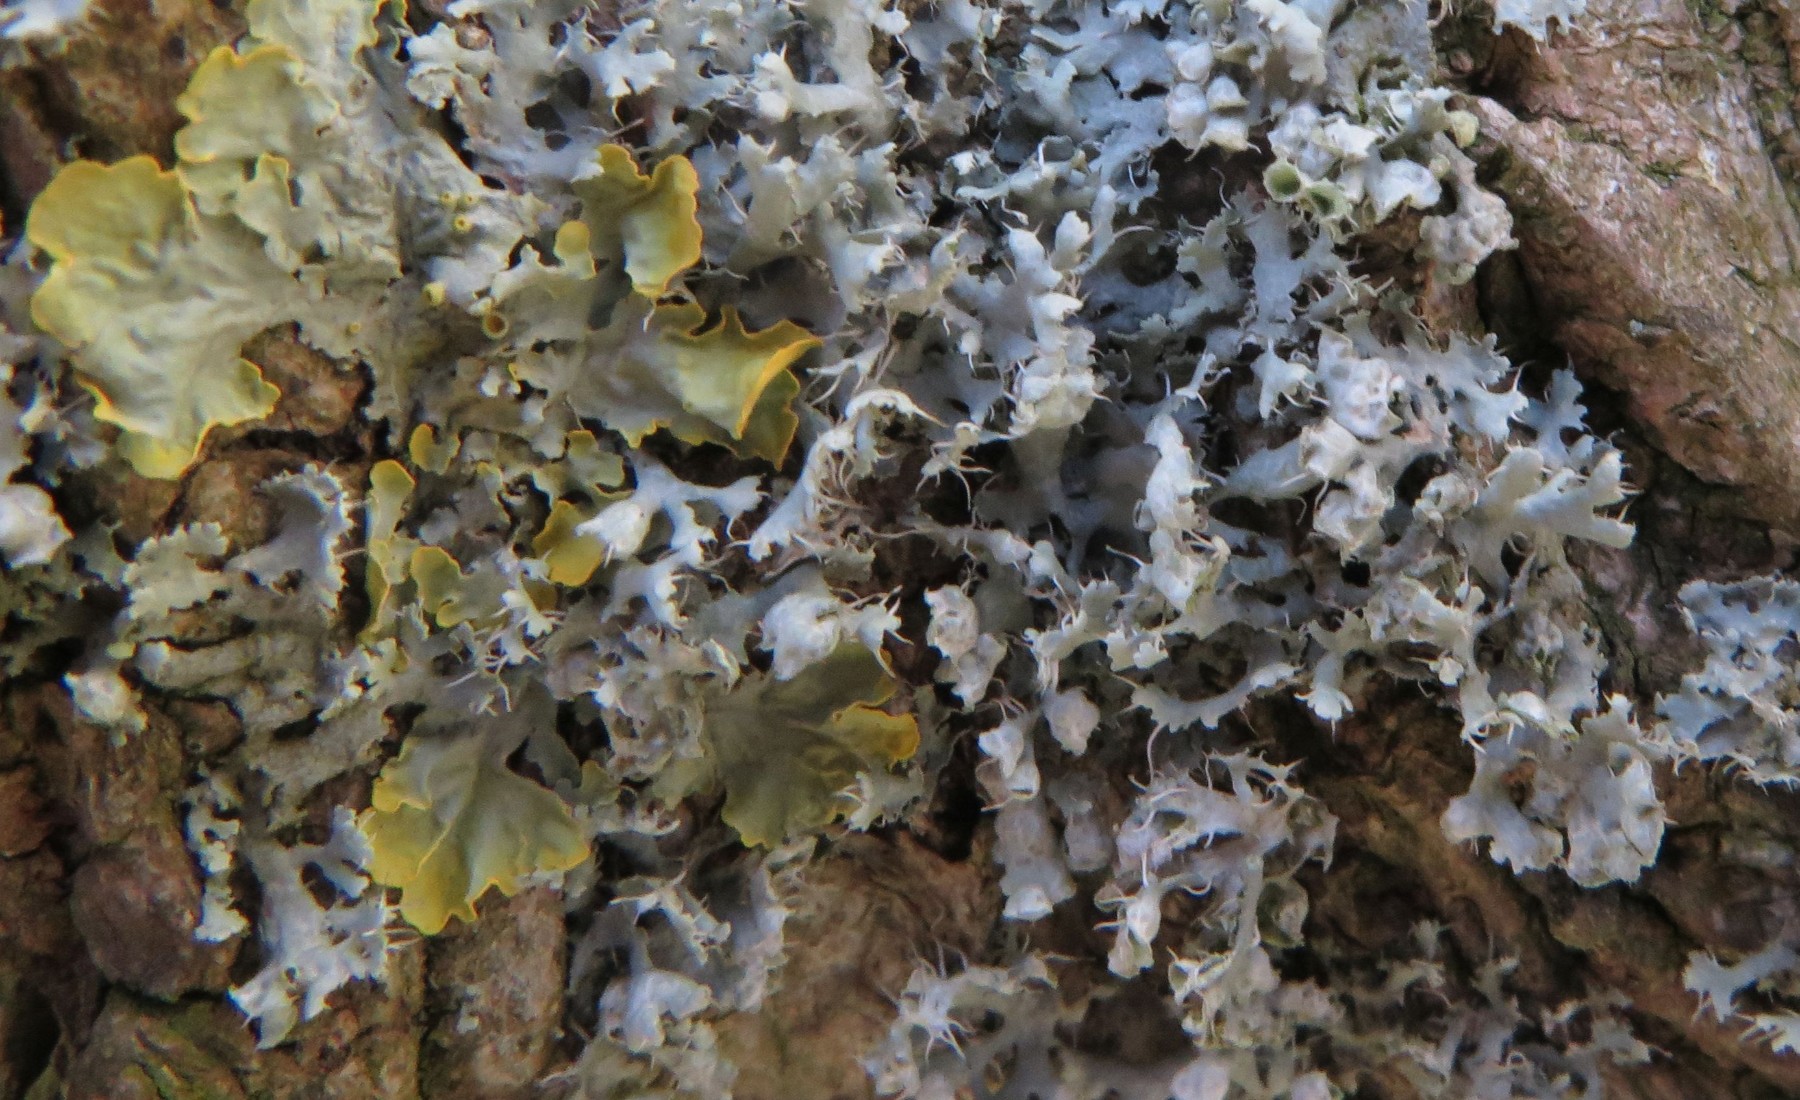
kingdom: Fungi
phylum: Ascomycota
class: Lecanoromycetes
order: Caliciales
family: Physciaceae
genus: Physcia
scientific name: Physcia tenella
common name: spæd rosetlav
